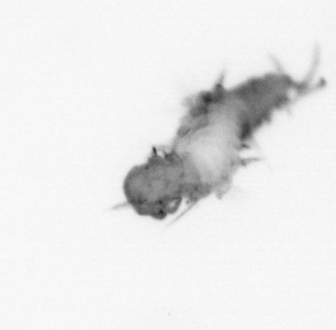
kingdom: Animalia
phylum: Annelida
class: Polychaeta
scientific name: Polychaeta
